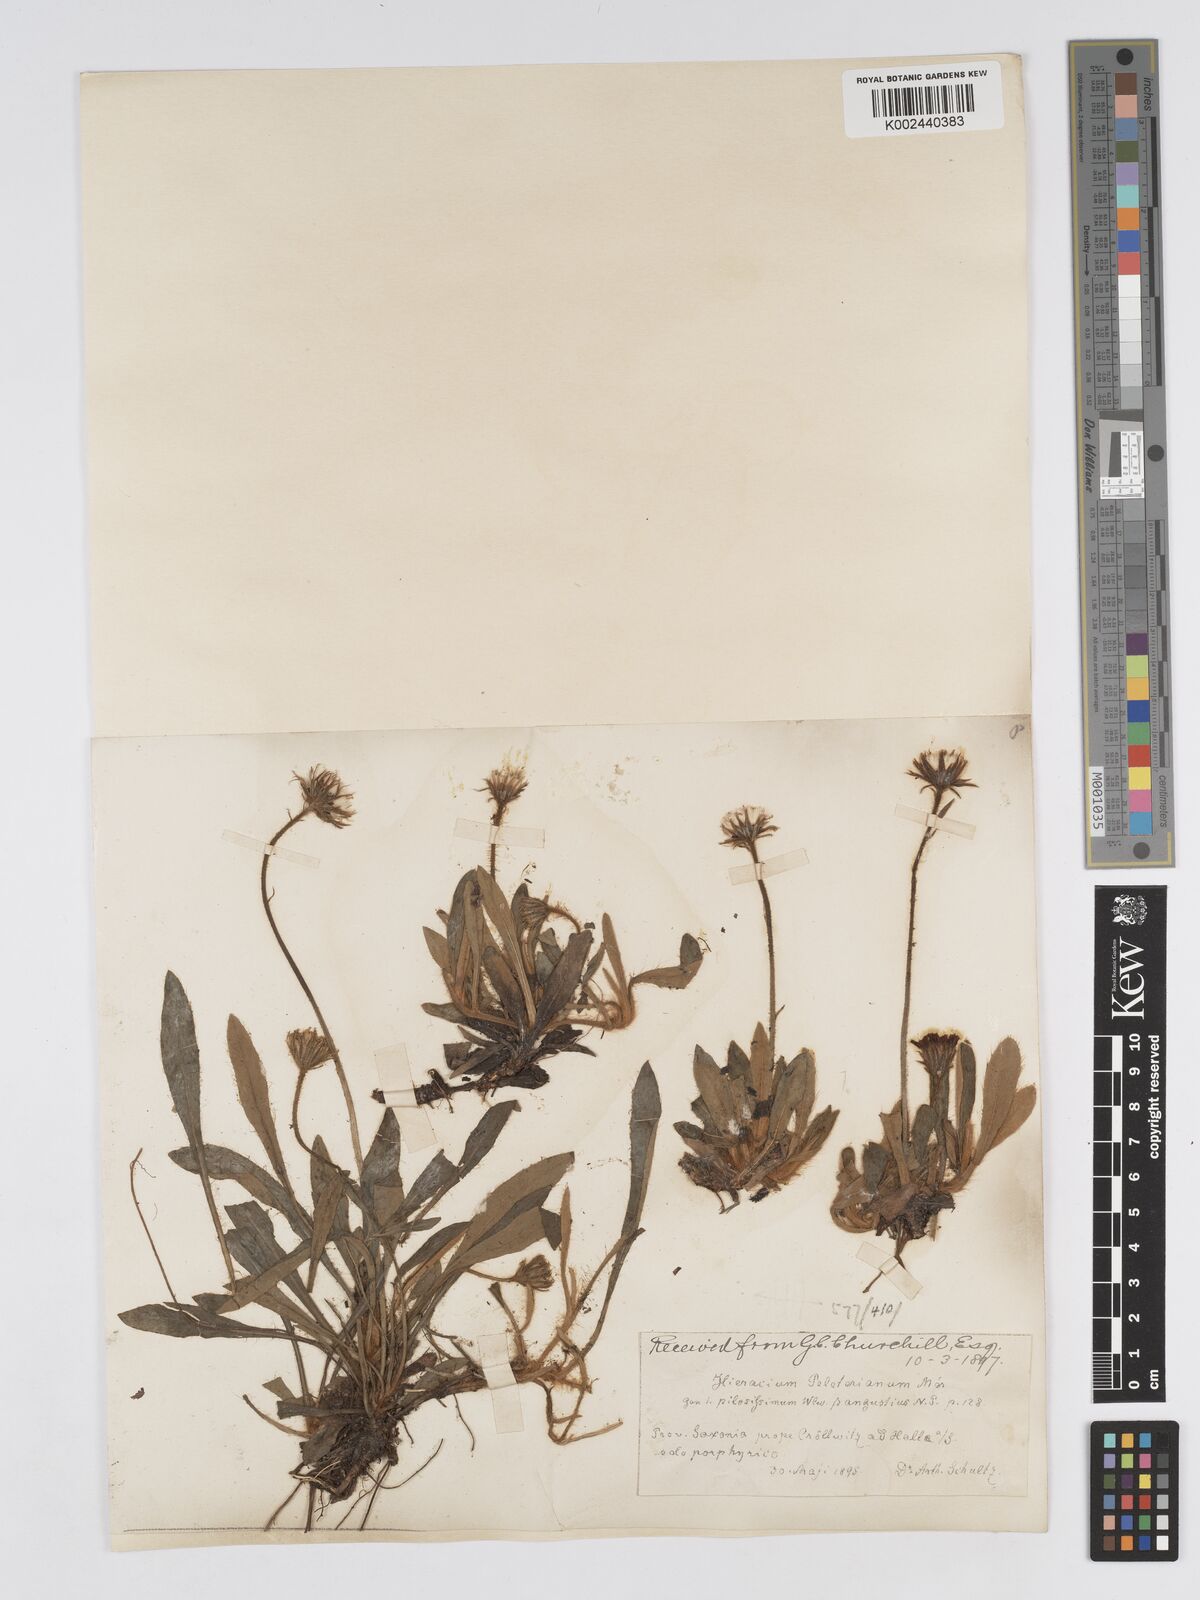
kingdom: Plantae
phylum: Tracheophyta
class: Magnoliopsida
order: Asterales
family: Asteraceae
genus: Pilosella
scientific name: Pilosella officinarum
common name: Mouse-ear hawkweed
